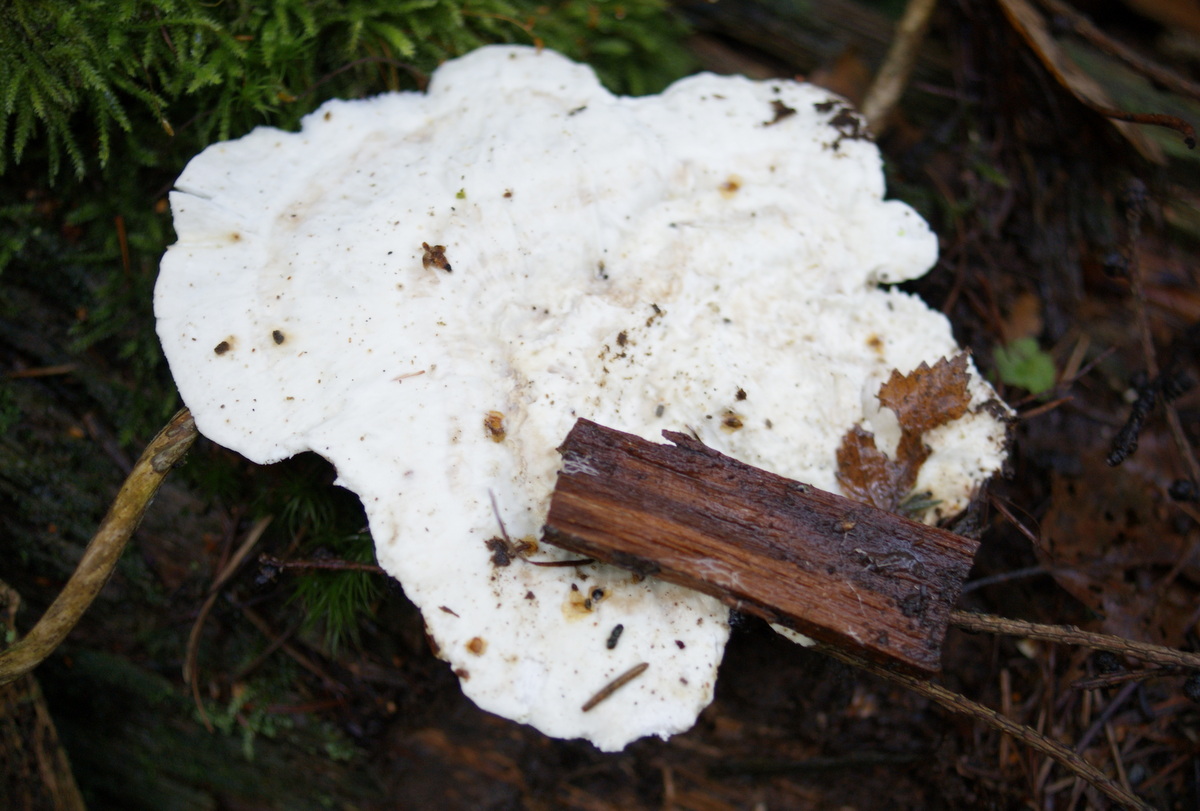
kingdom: Fungi
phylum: Basidiomycota
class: Agaricomycetes
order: Polyporales
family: Incrustoporiaceae
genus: Tyromyces
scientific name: Tyromyces lacteus
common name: mælkehvid kødporesvamp
